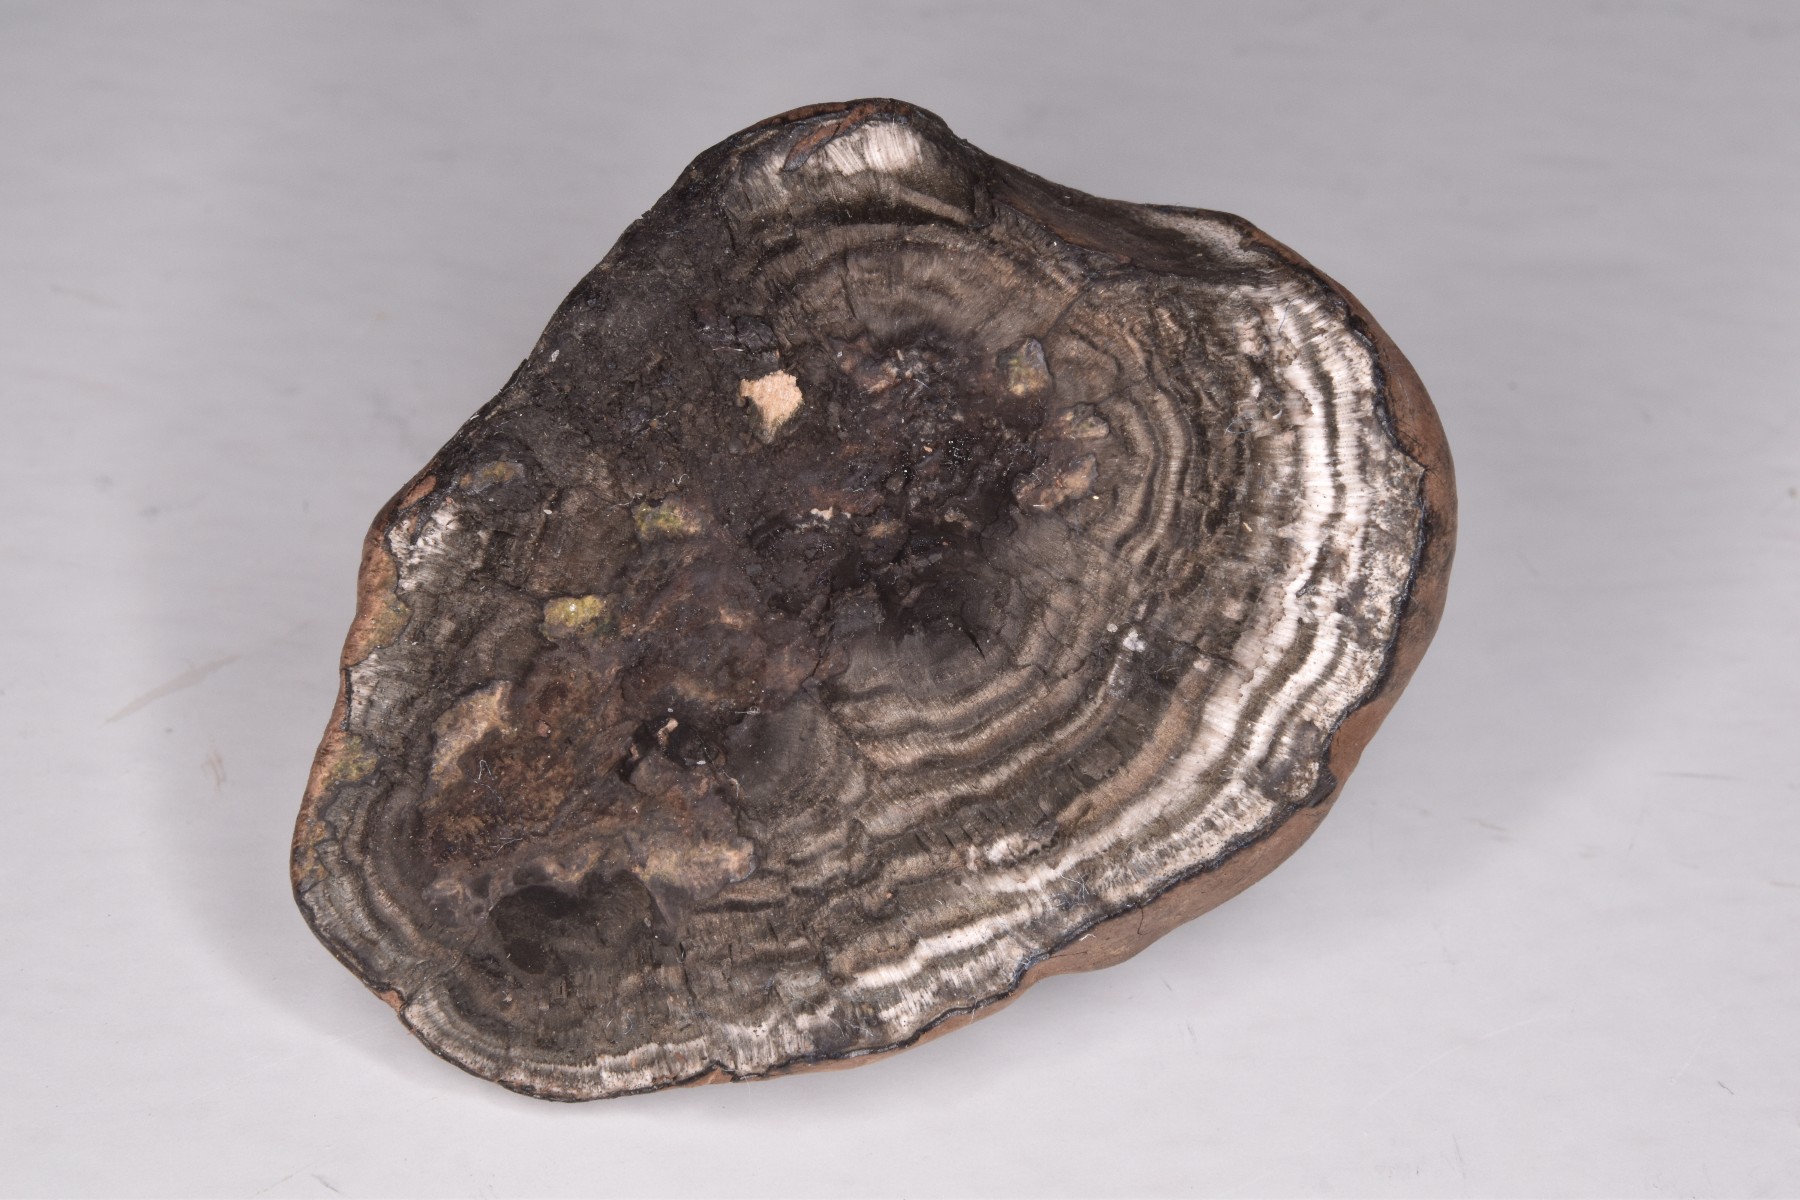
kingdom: Fungi
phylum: Ascomycota
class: Sordariomycetes
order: Xylariales
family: Hypoxylaceae
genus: Daldinia
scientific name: Daldinia concentrica
